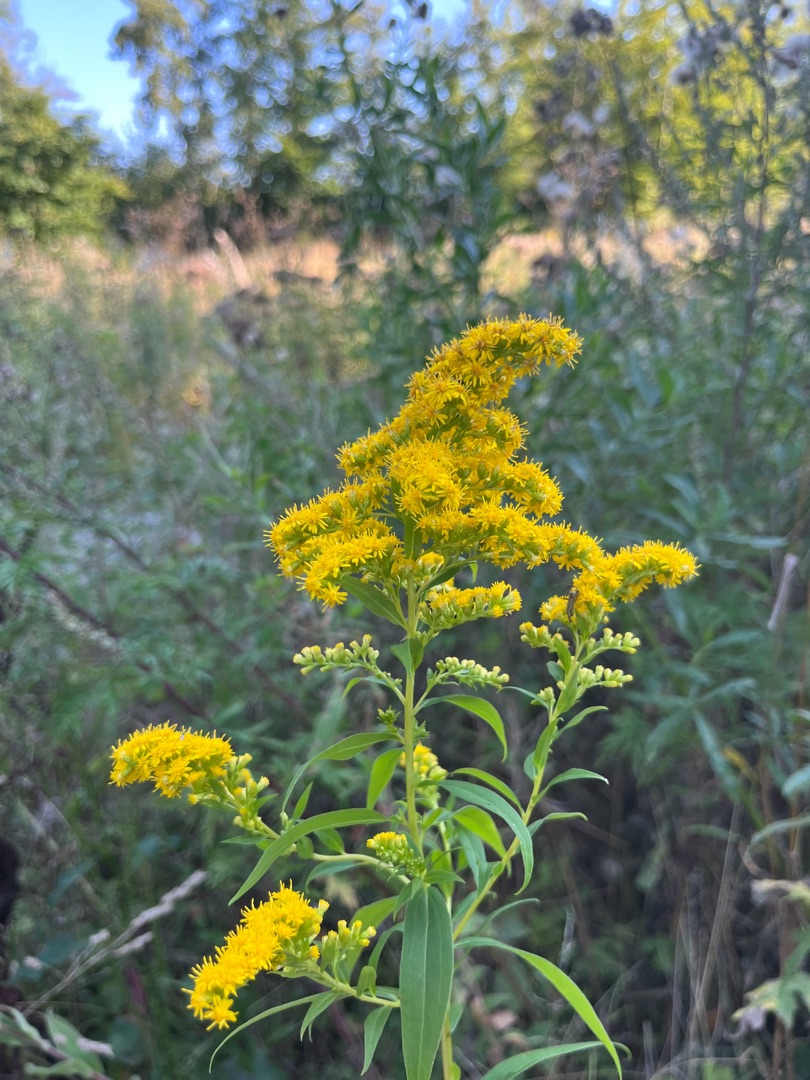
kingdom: Plantae
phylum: Tracheophyta
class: Magnoliopsida
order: Asterales
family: Asteraceae
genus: Solidago
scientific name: Solidago gigantea
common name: Sildig gyldenris
